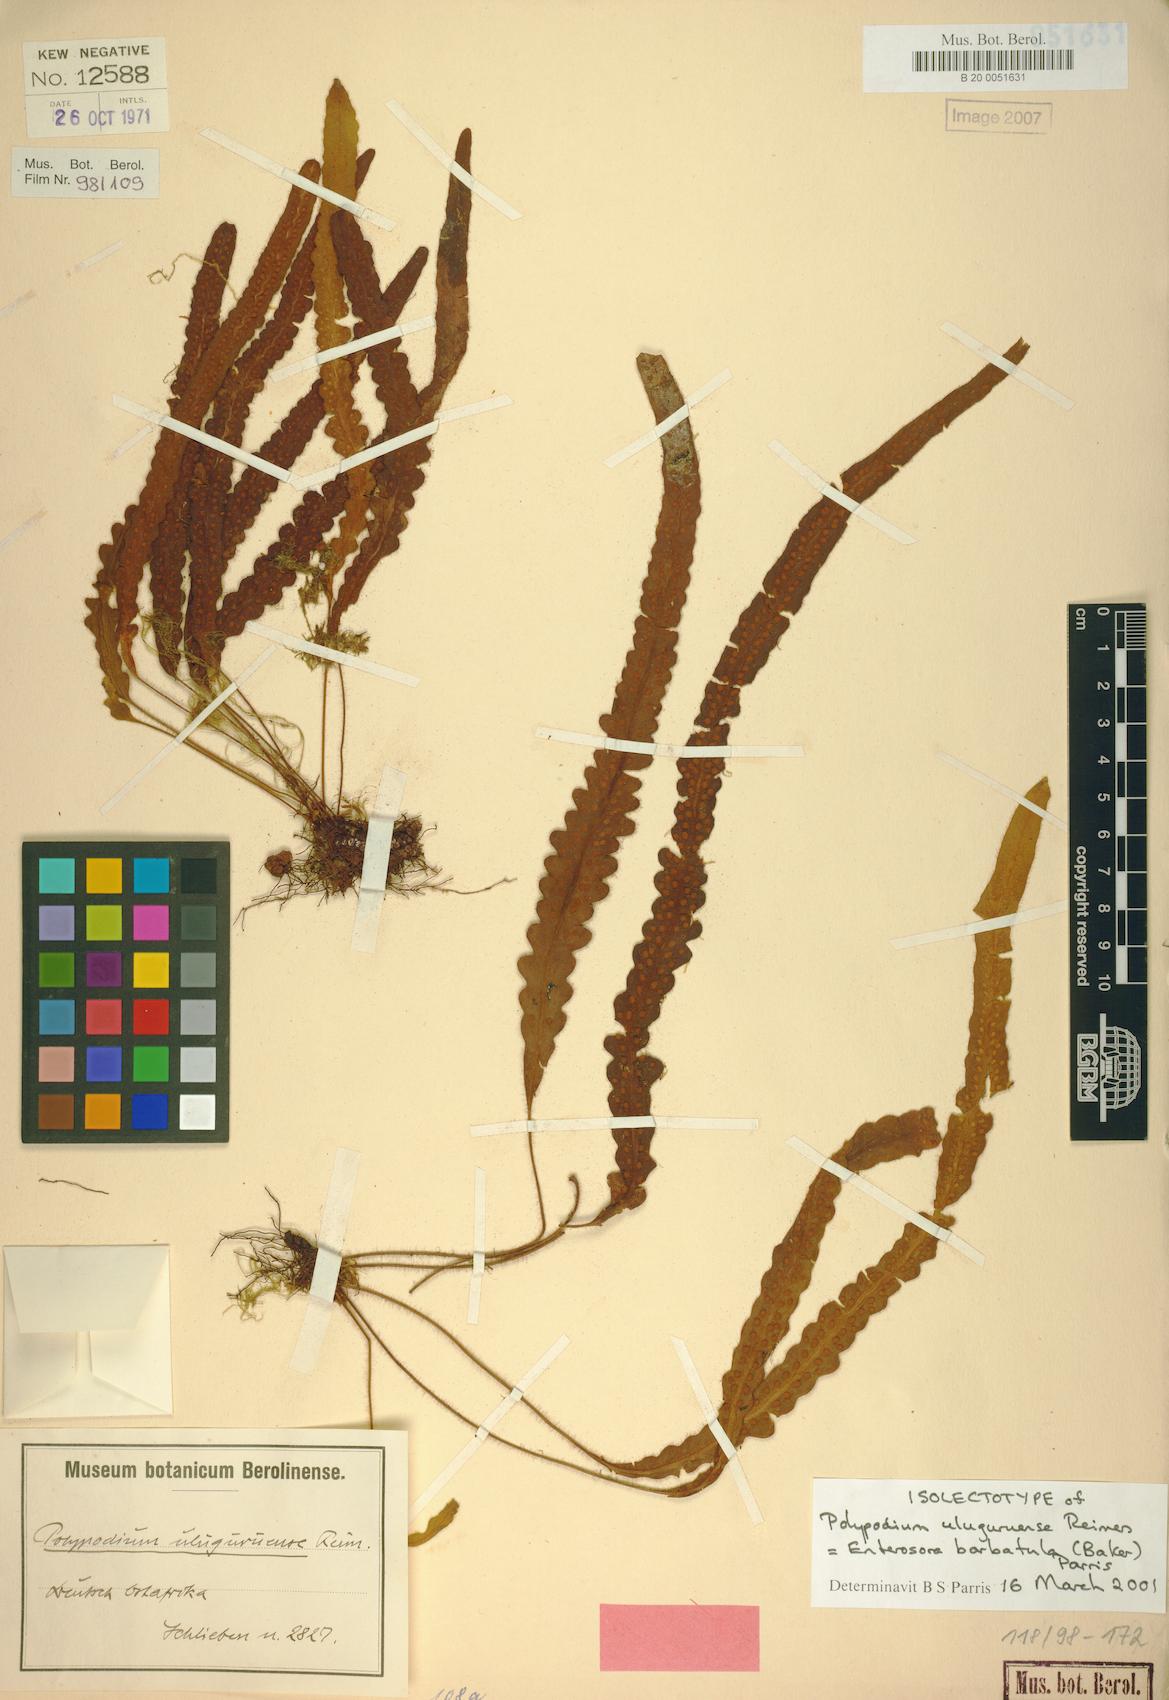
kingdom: Plantae
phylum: Tracheophyta
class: Polypodiopsida
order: Polypodiales
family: Polypodiaceae
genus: Enterosora
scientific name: Enterosora barbatula
